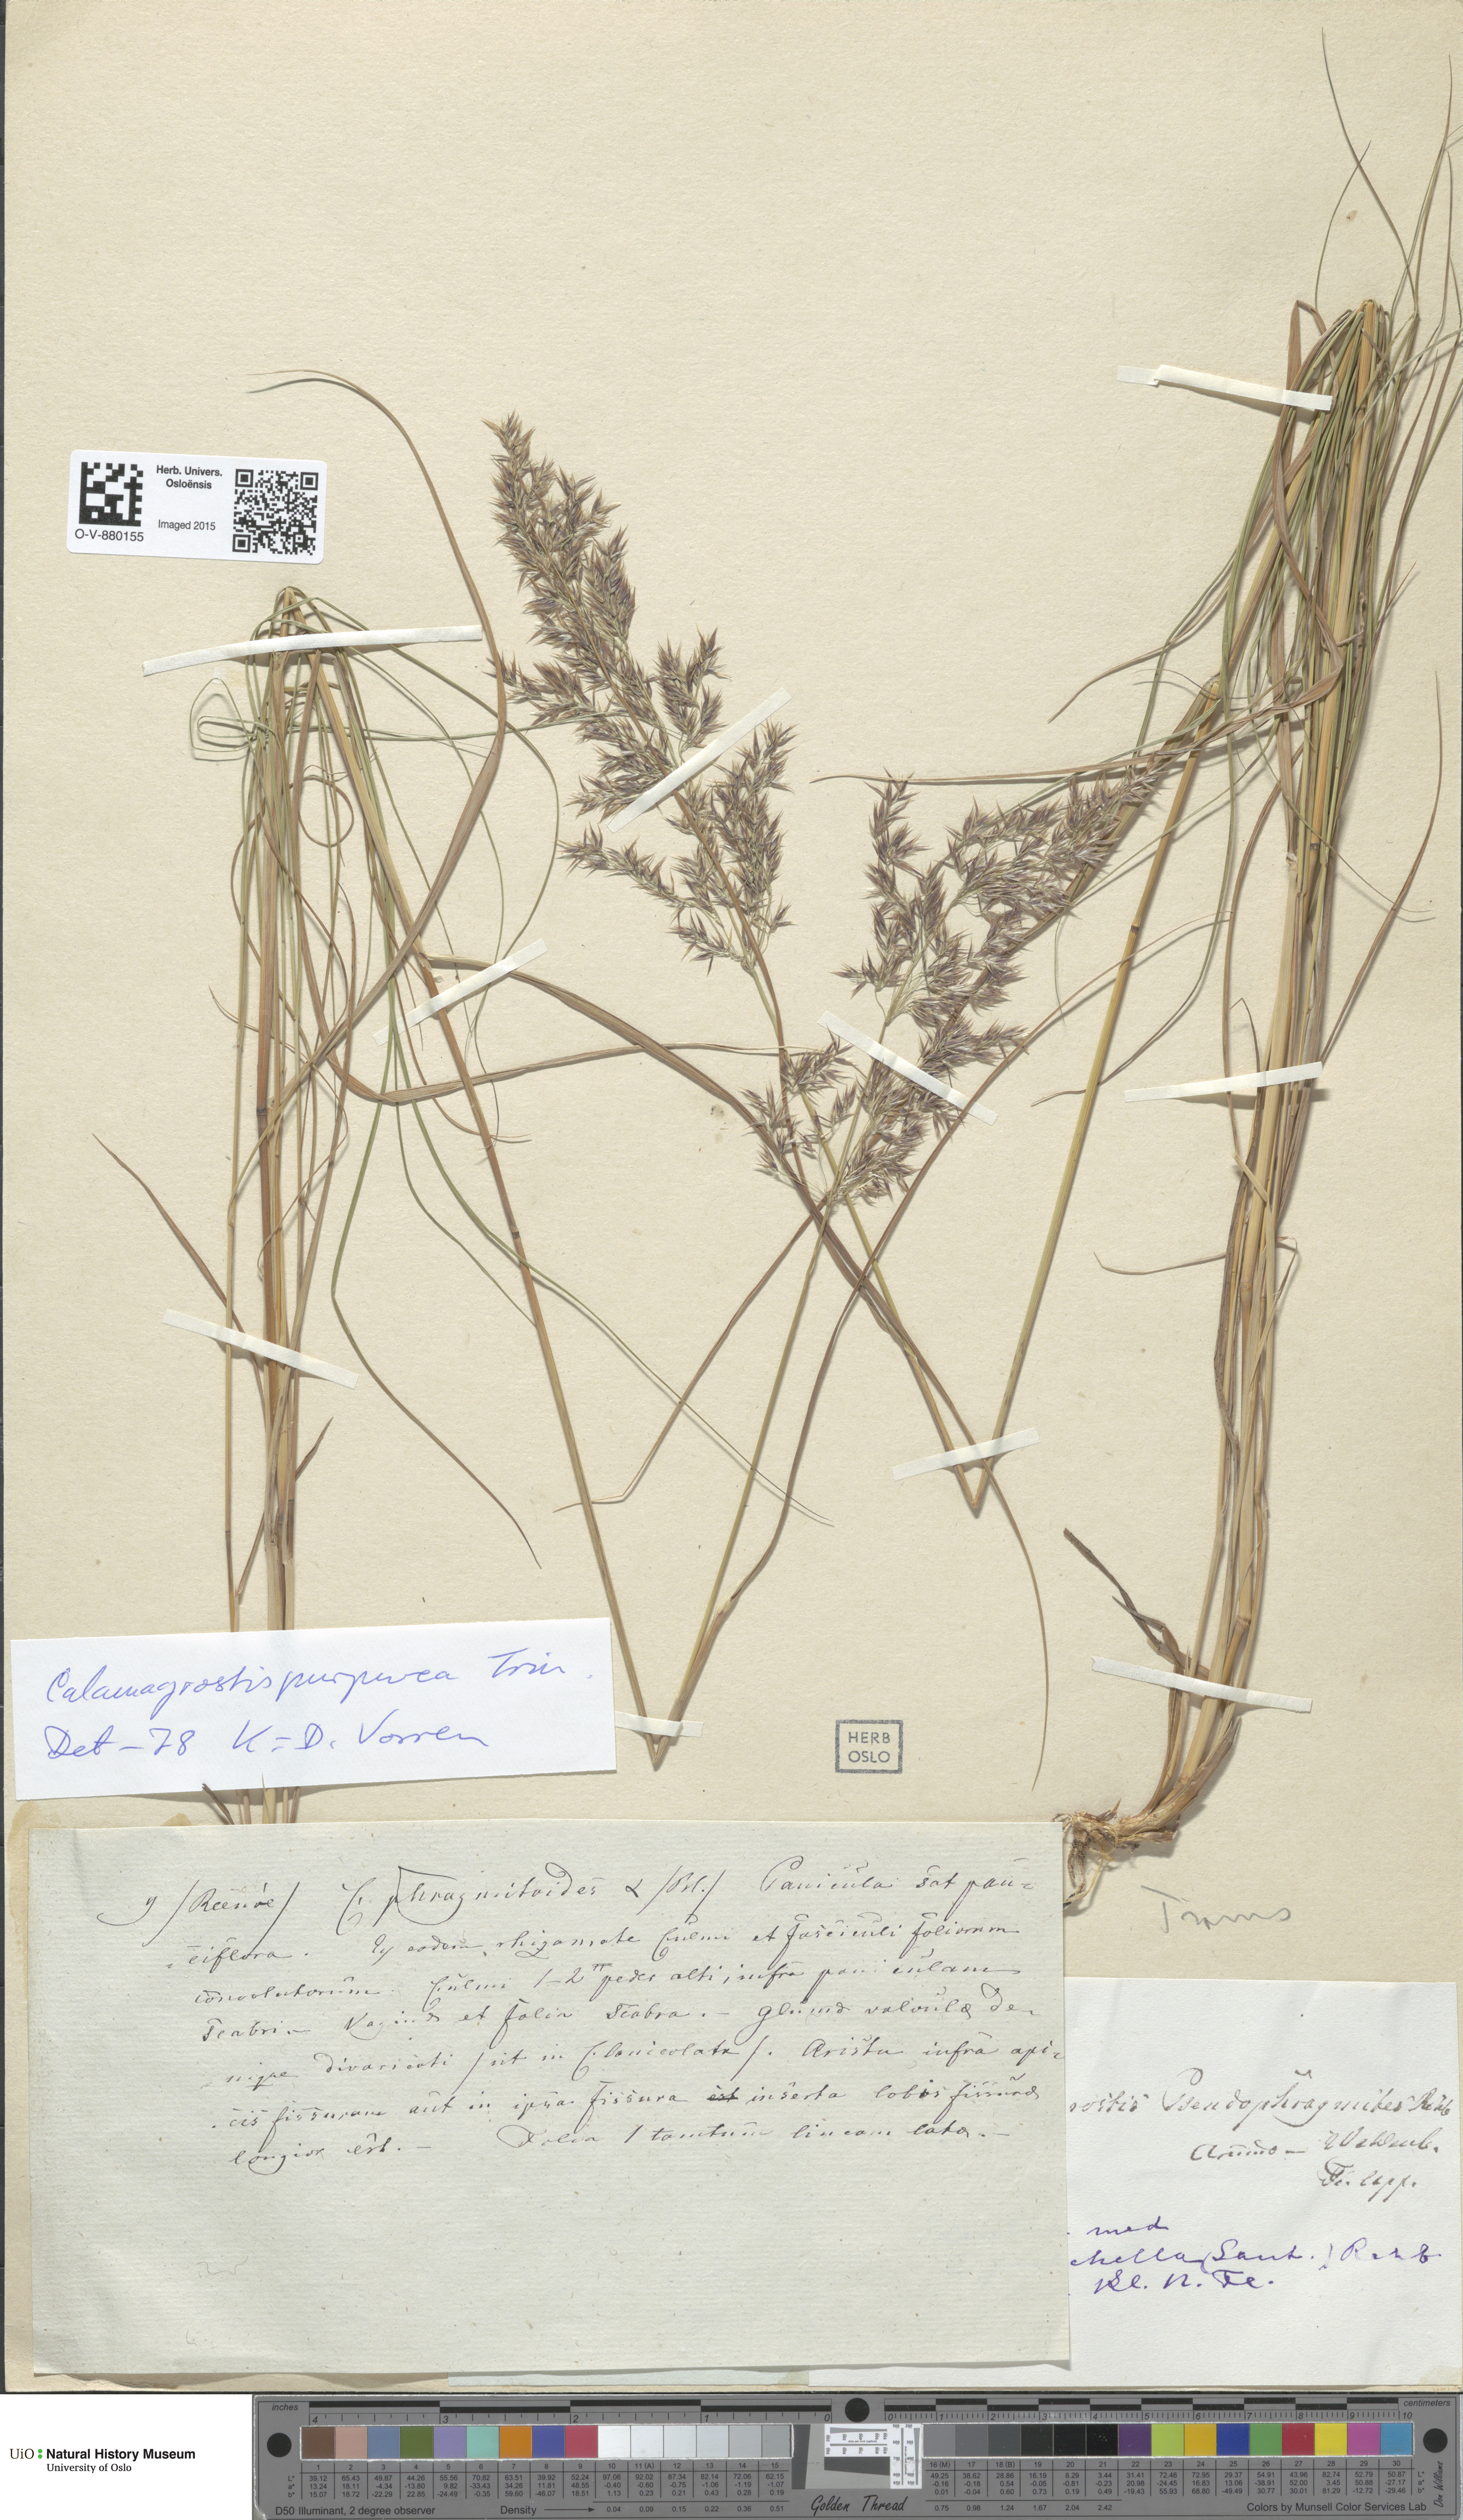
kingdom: Plantae
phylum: Tracheophyta
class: Liliopsida
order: Poales
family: Poaceae
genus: Calamagrostis
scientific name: Calamagrostis purpurea
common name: Scandinavian small-reed
